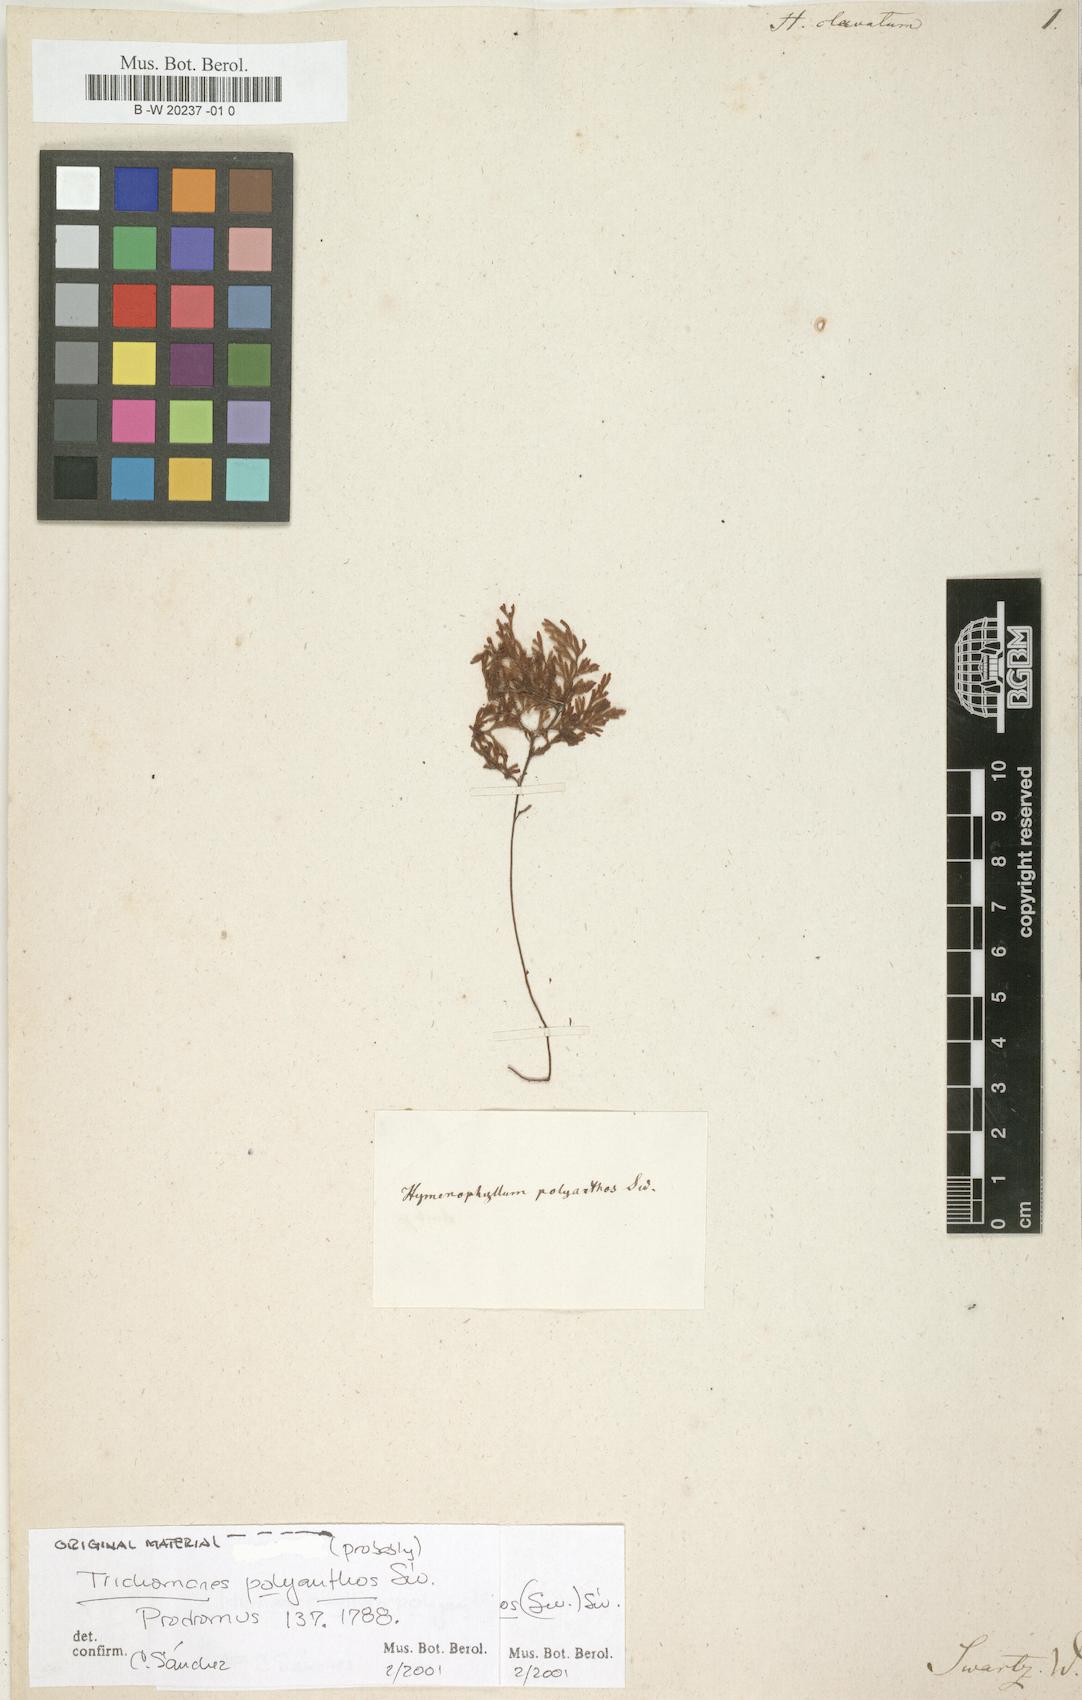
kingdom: Plantae
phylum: Tracheophyta
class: Polypodiopsida
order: Hymenophyllales
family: Hymenophyllaceae
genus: Hymenophyllum
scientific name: Hymenophyllum polyanthos
